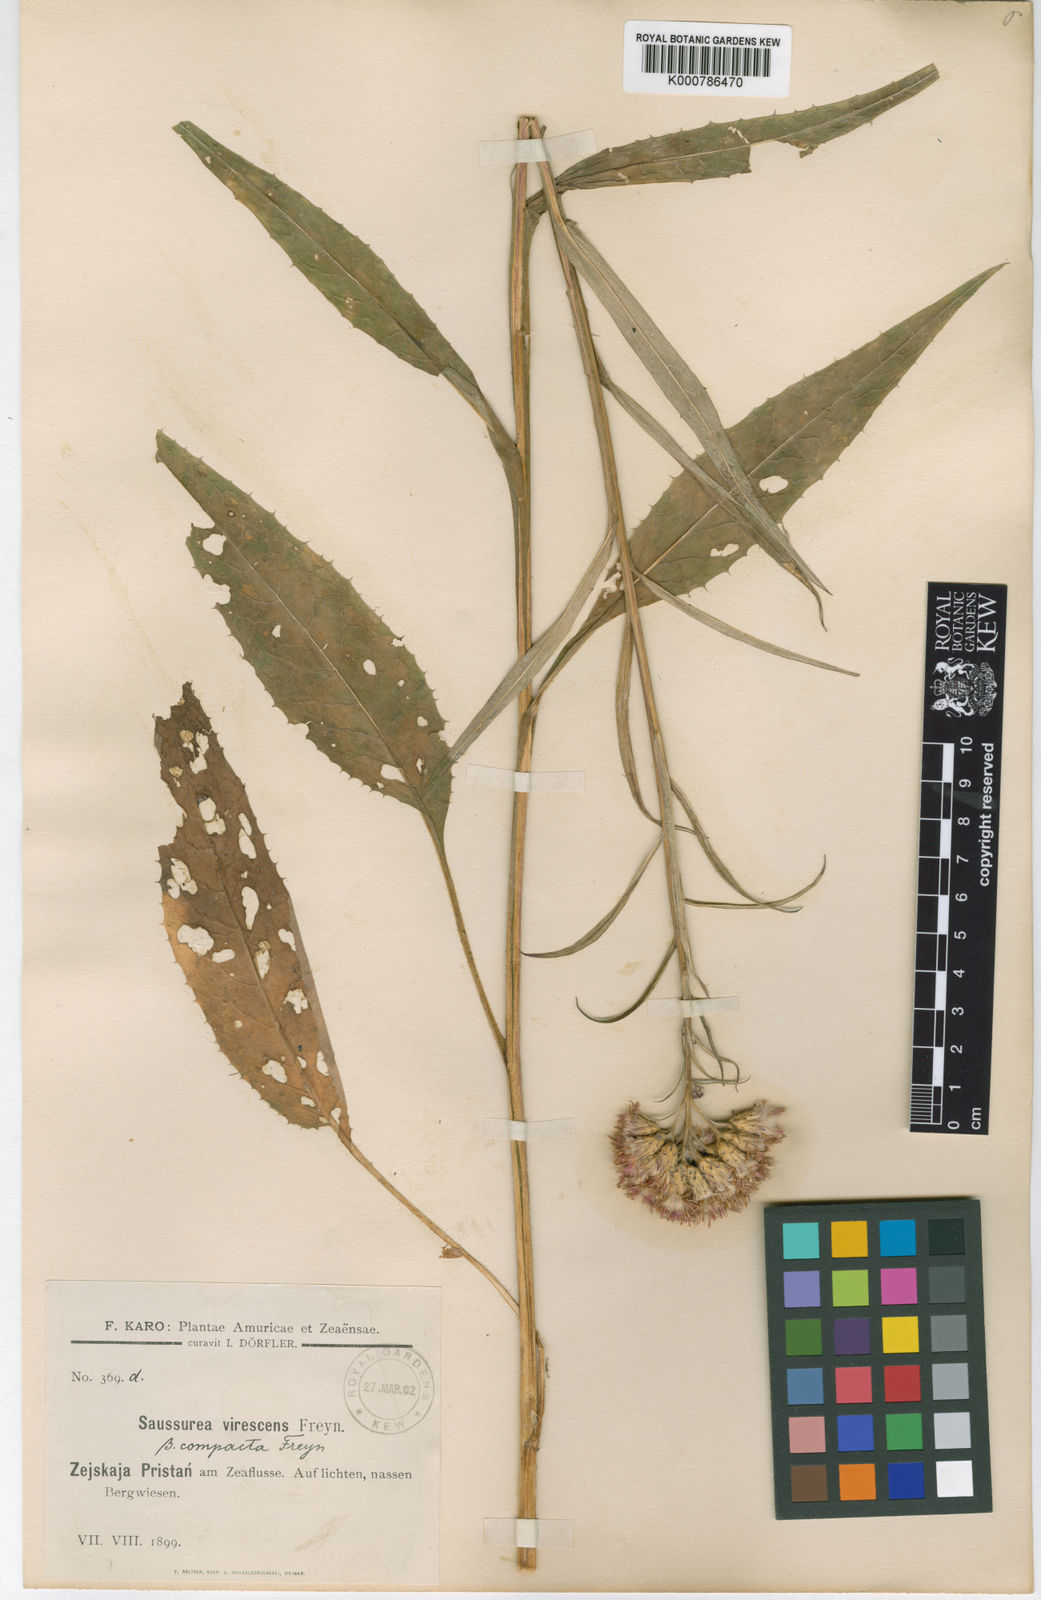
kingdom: Plantae
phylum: Tracheophyta
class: Magnoliopsida
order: Asterales
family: Asteraceae
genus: Saussurea
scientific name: Saussurea
